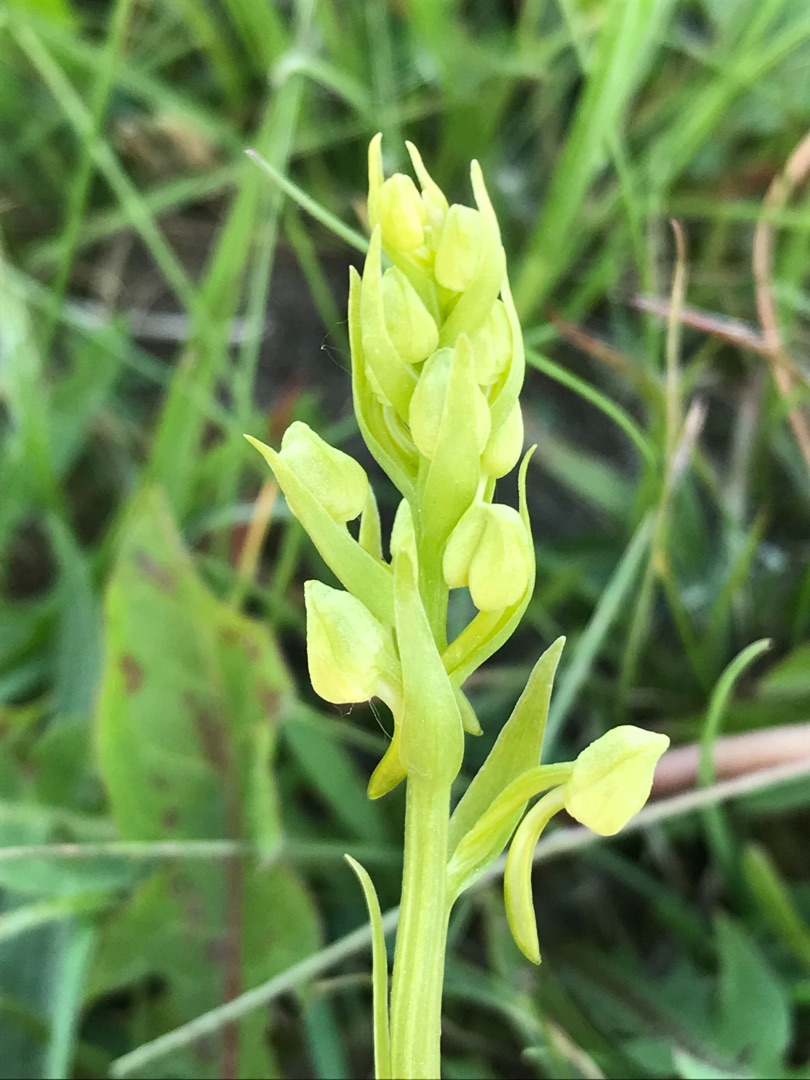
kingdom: Plantae
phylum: Tracheophyta
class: Liliopsida
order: Asparagales
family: Orchidaceae
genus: Platanthera
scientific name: Platanthera chlorantha
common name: Skov-gøgelilje
